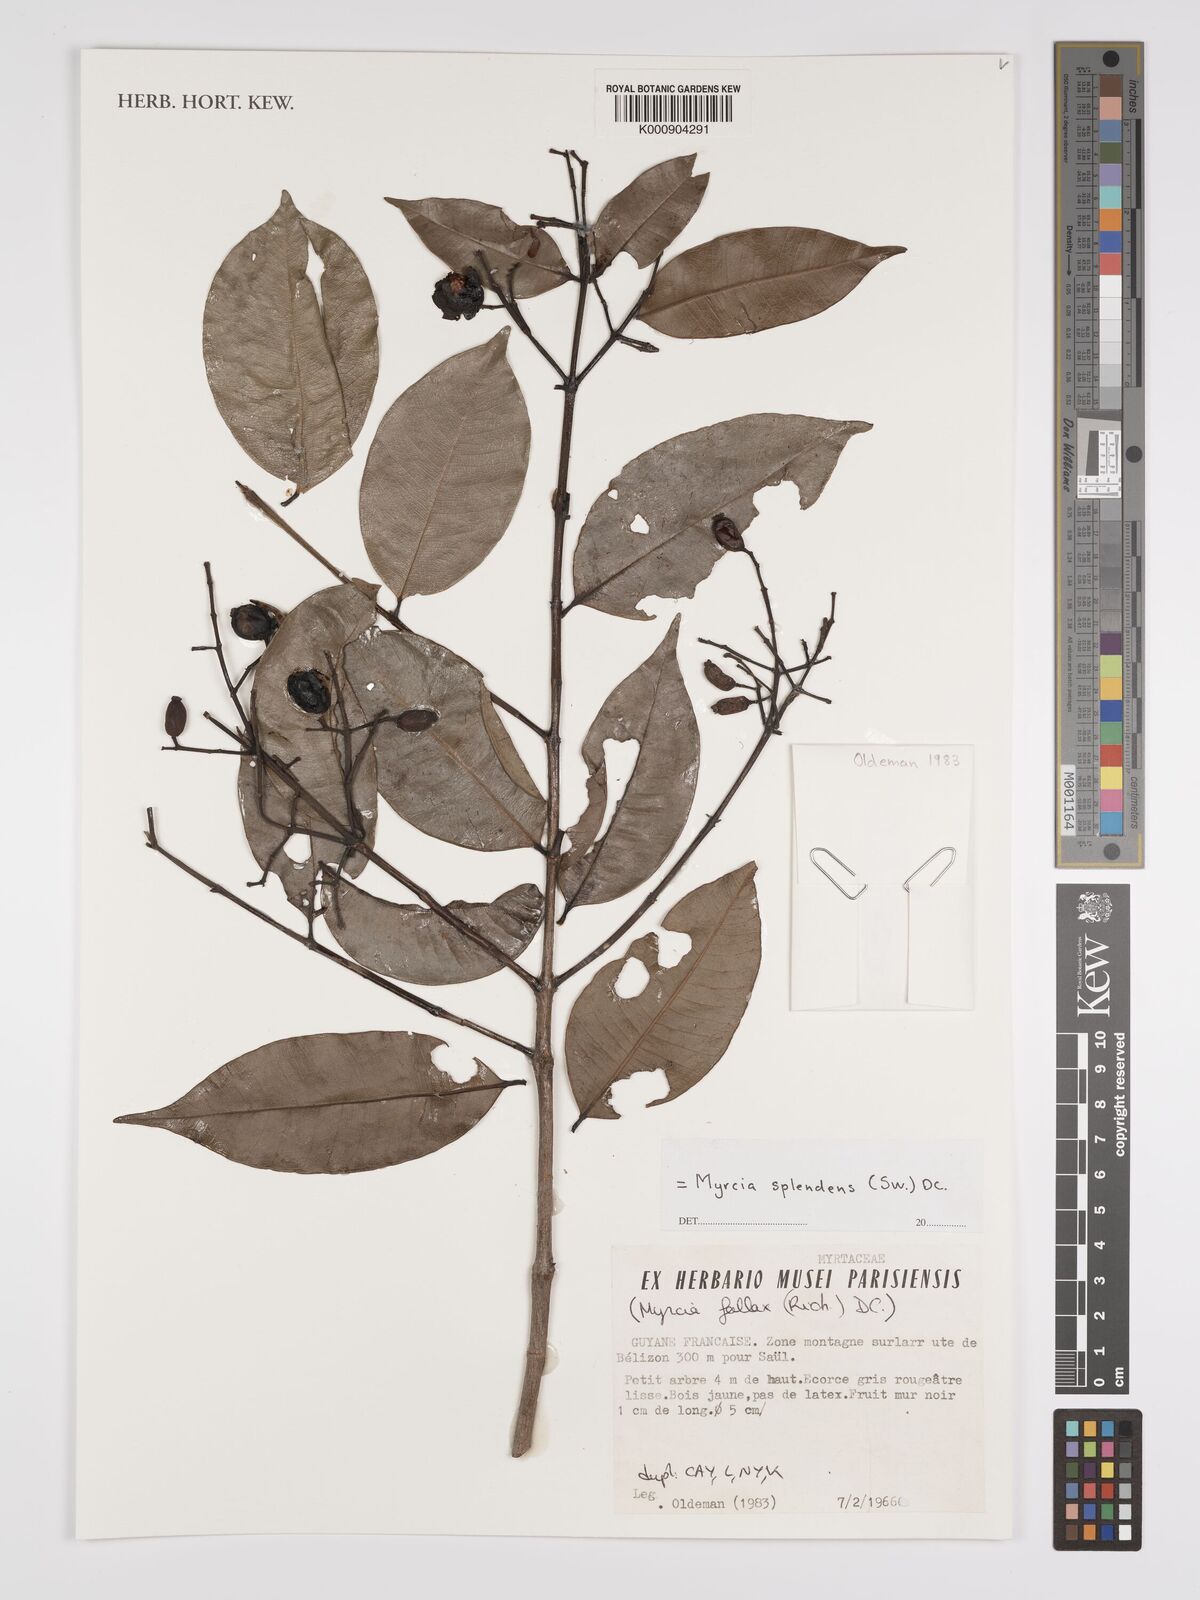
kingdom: Plantae
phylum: Tracheophyta
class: Magnoliopsida
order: Myrtales
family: Myrtaceae
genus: Myrcia
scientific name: Myrcia splendens
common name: Surinam cherry
